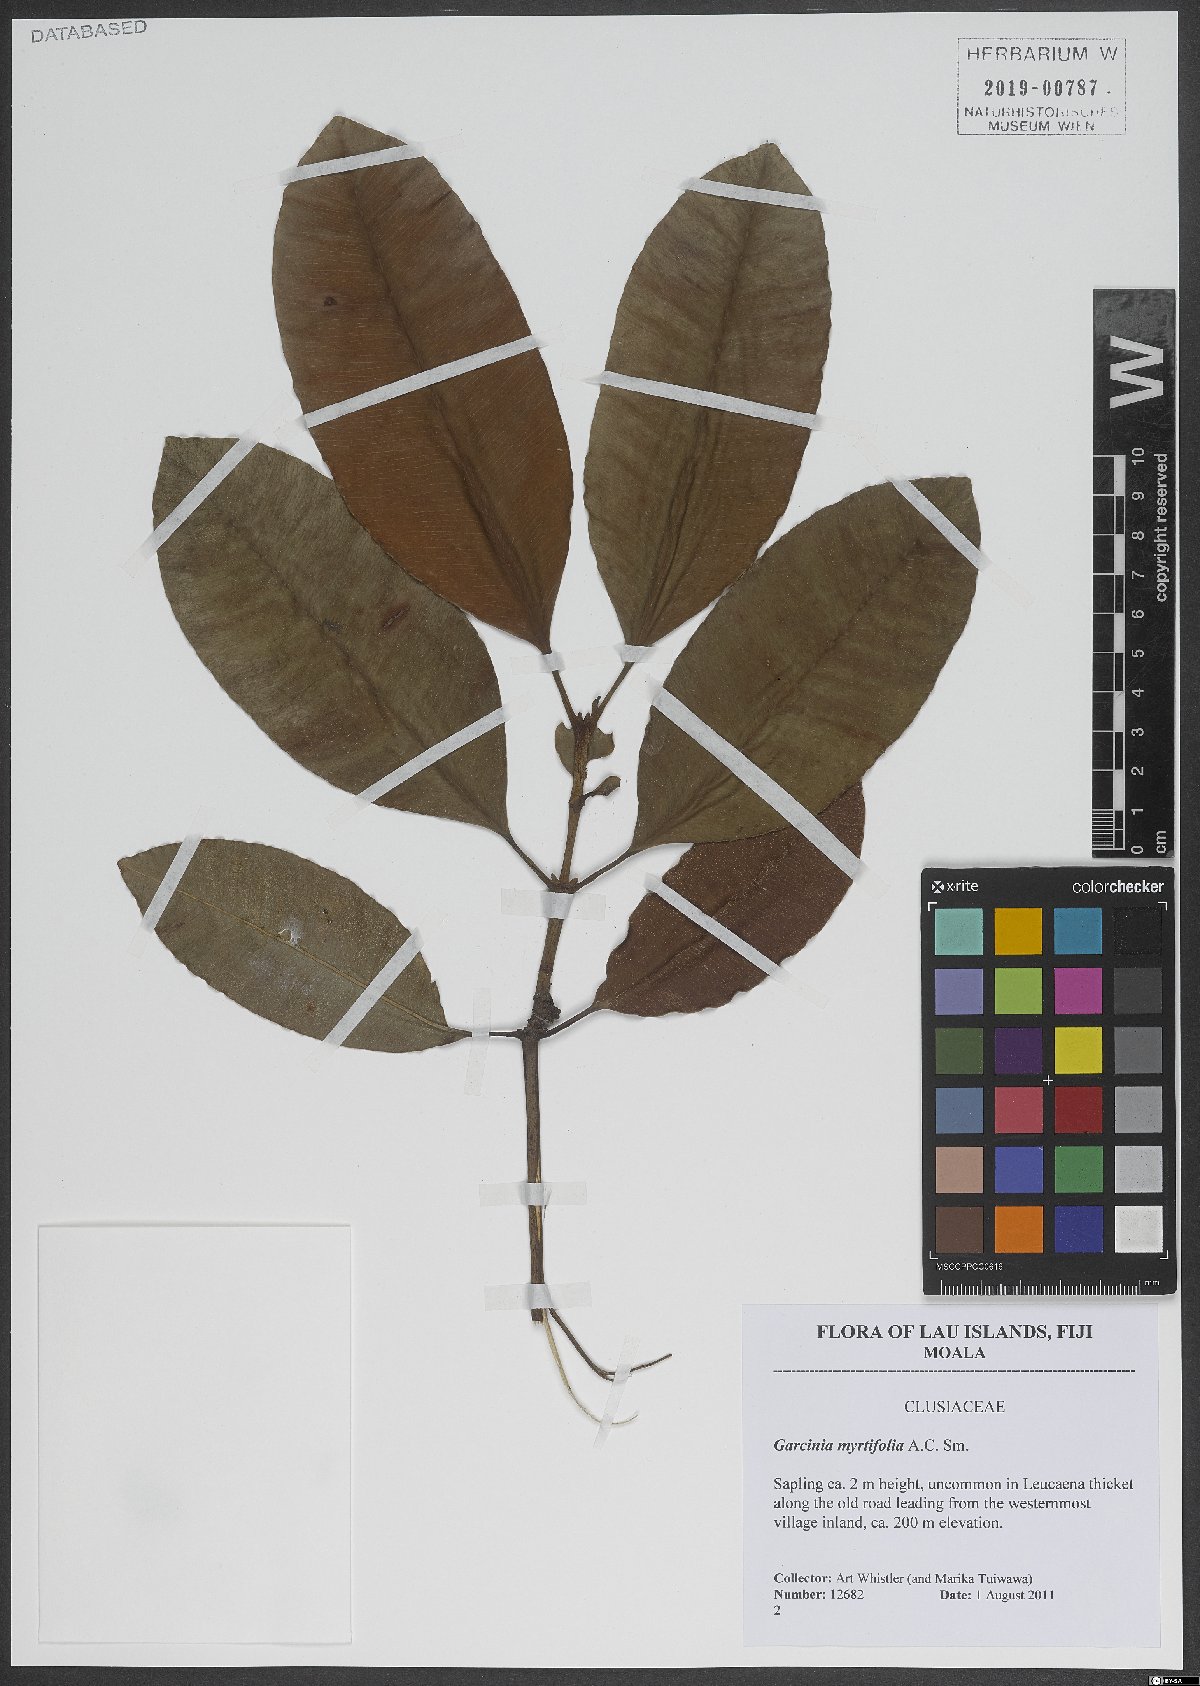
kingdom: Plantae
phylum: Tracheophyta
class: Magnoliopsida
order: Malpighiales
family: Clusiaceae
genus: Garcinia
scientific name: Garcinia myrtifolia
